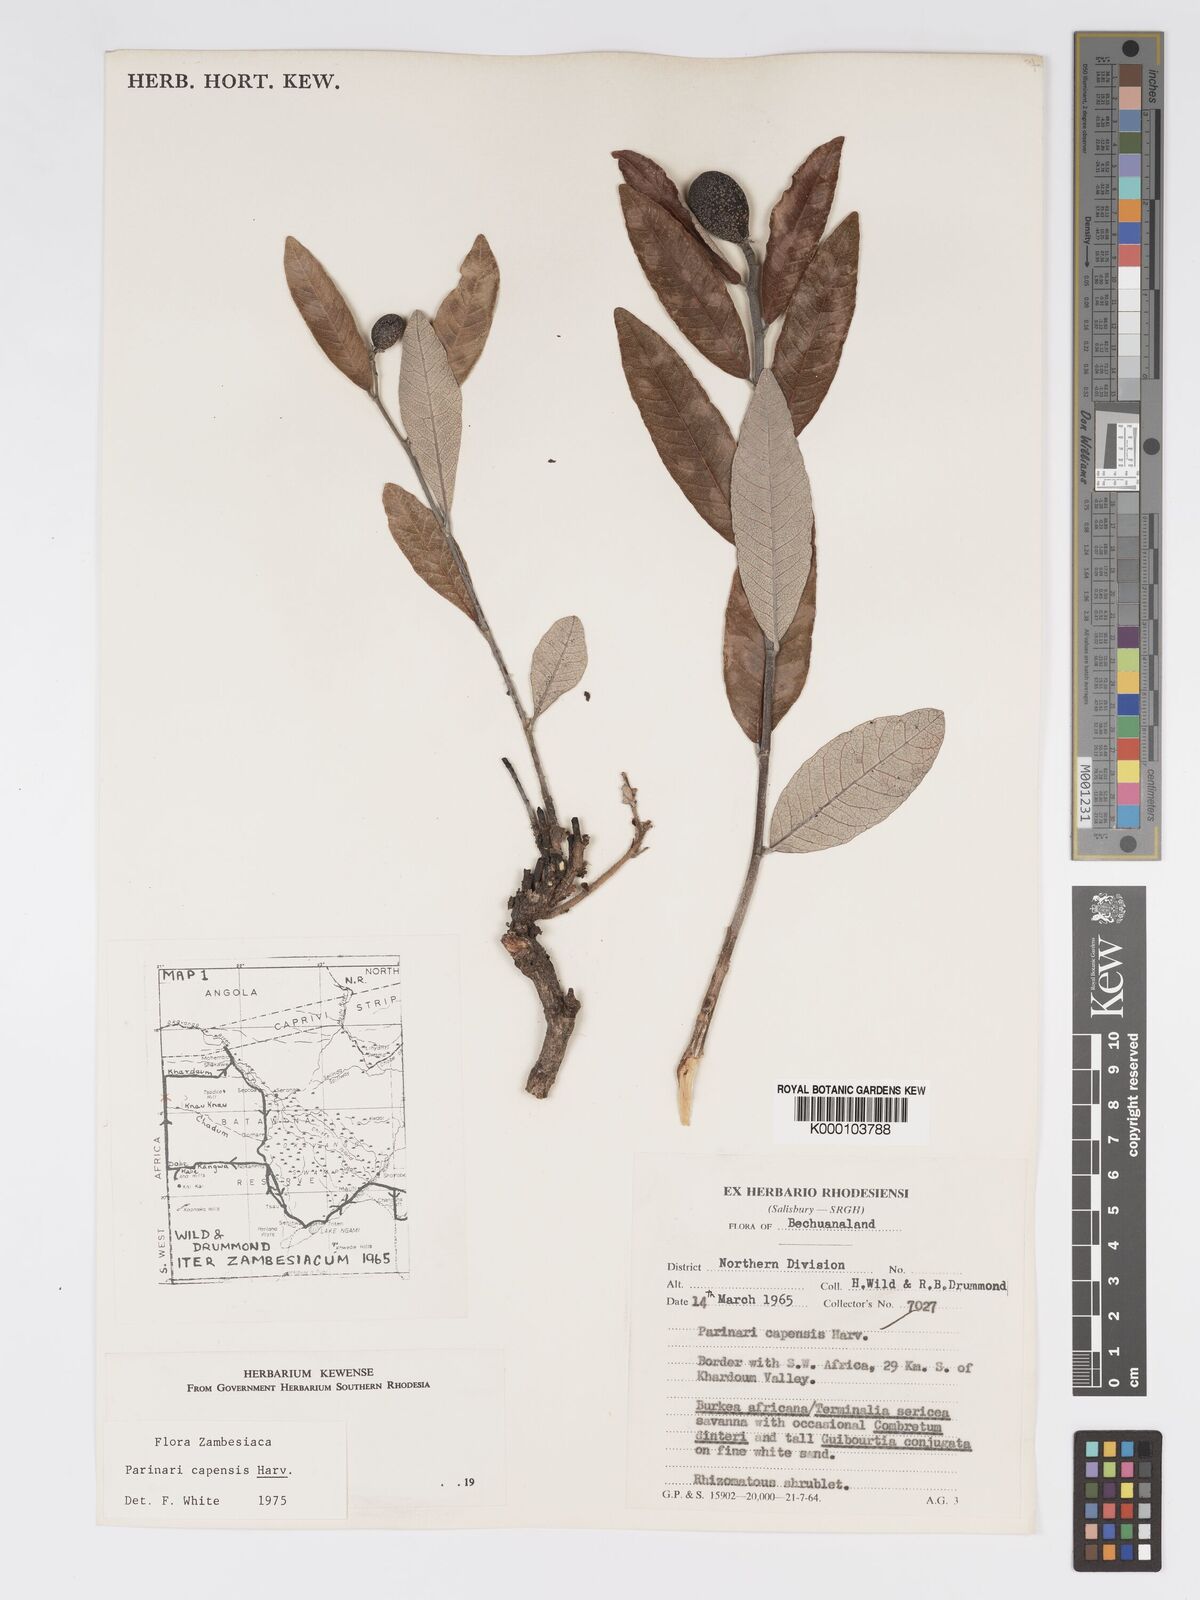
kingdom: Plantae
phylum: Tracheophyta
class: Magnoliopsida
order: Malpighiales
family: Chrysobalanaceae
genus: Parinari
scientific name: Parinari capensis
